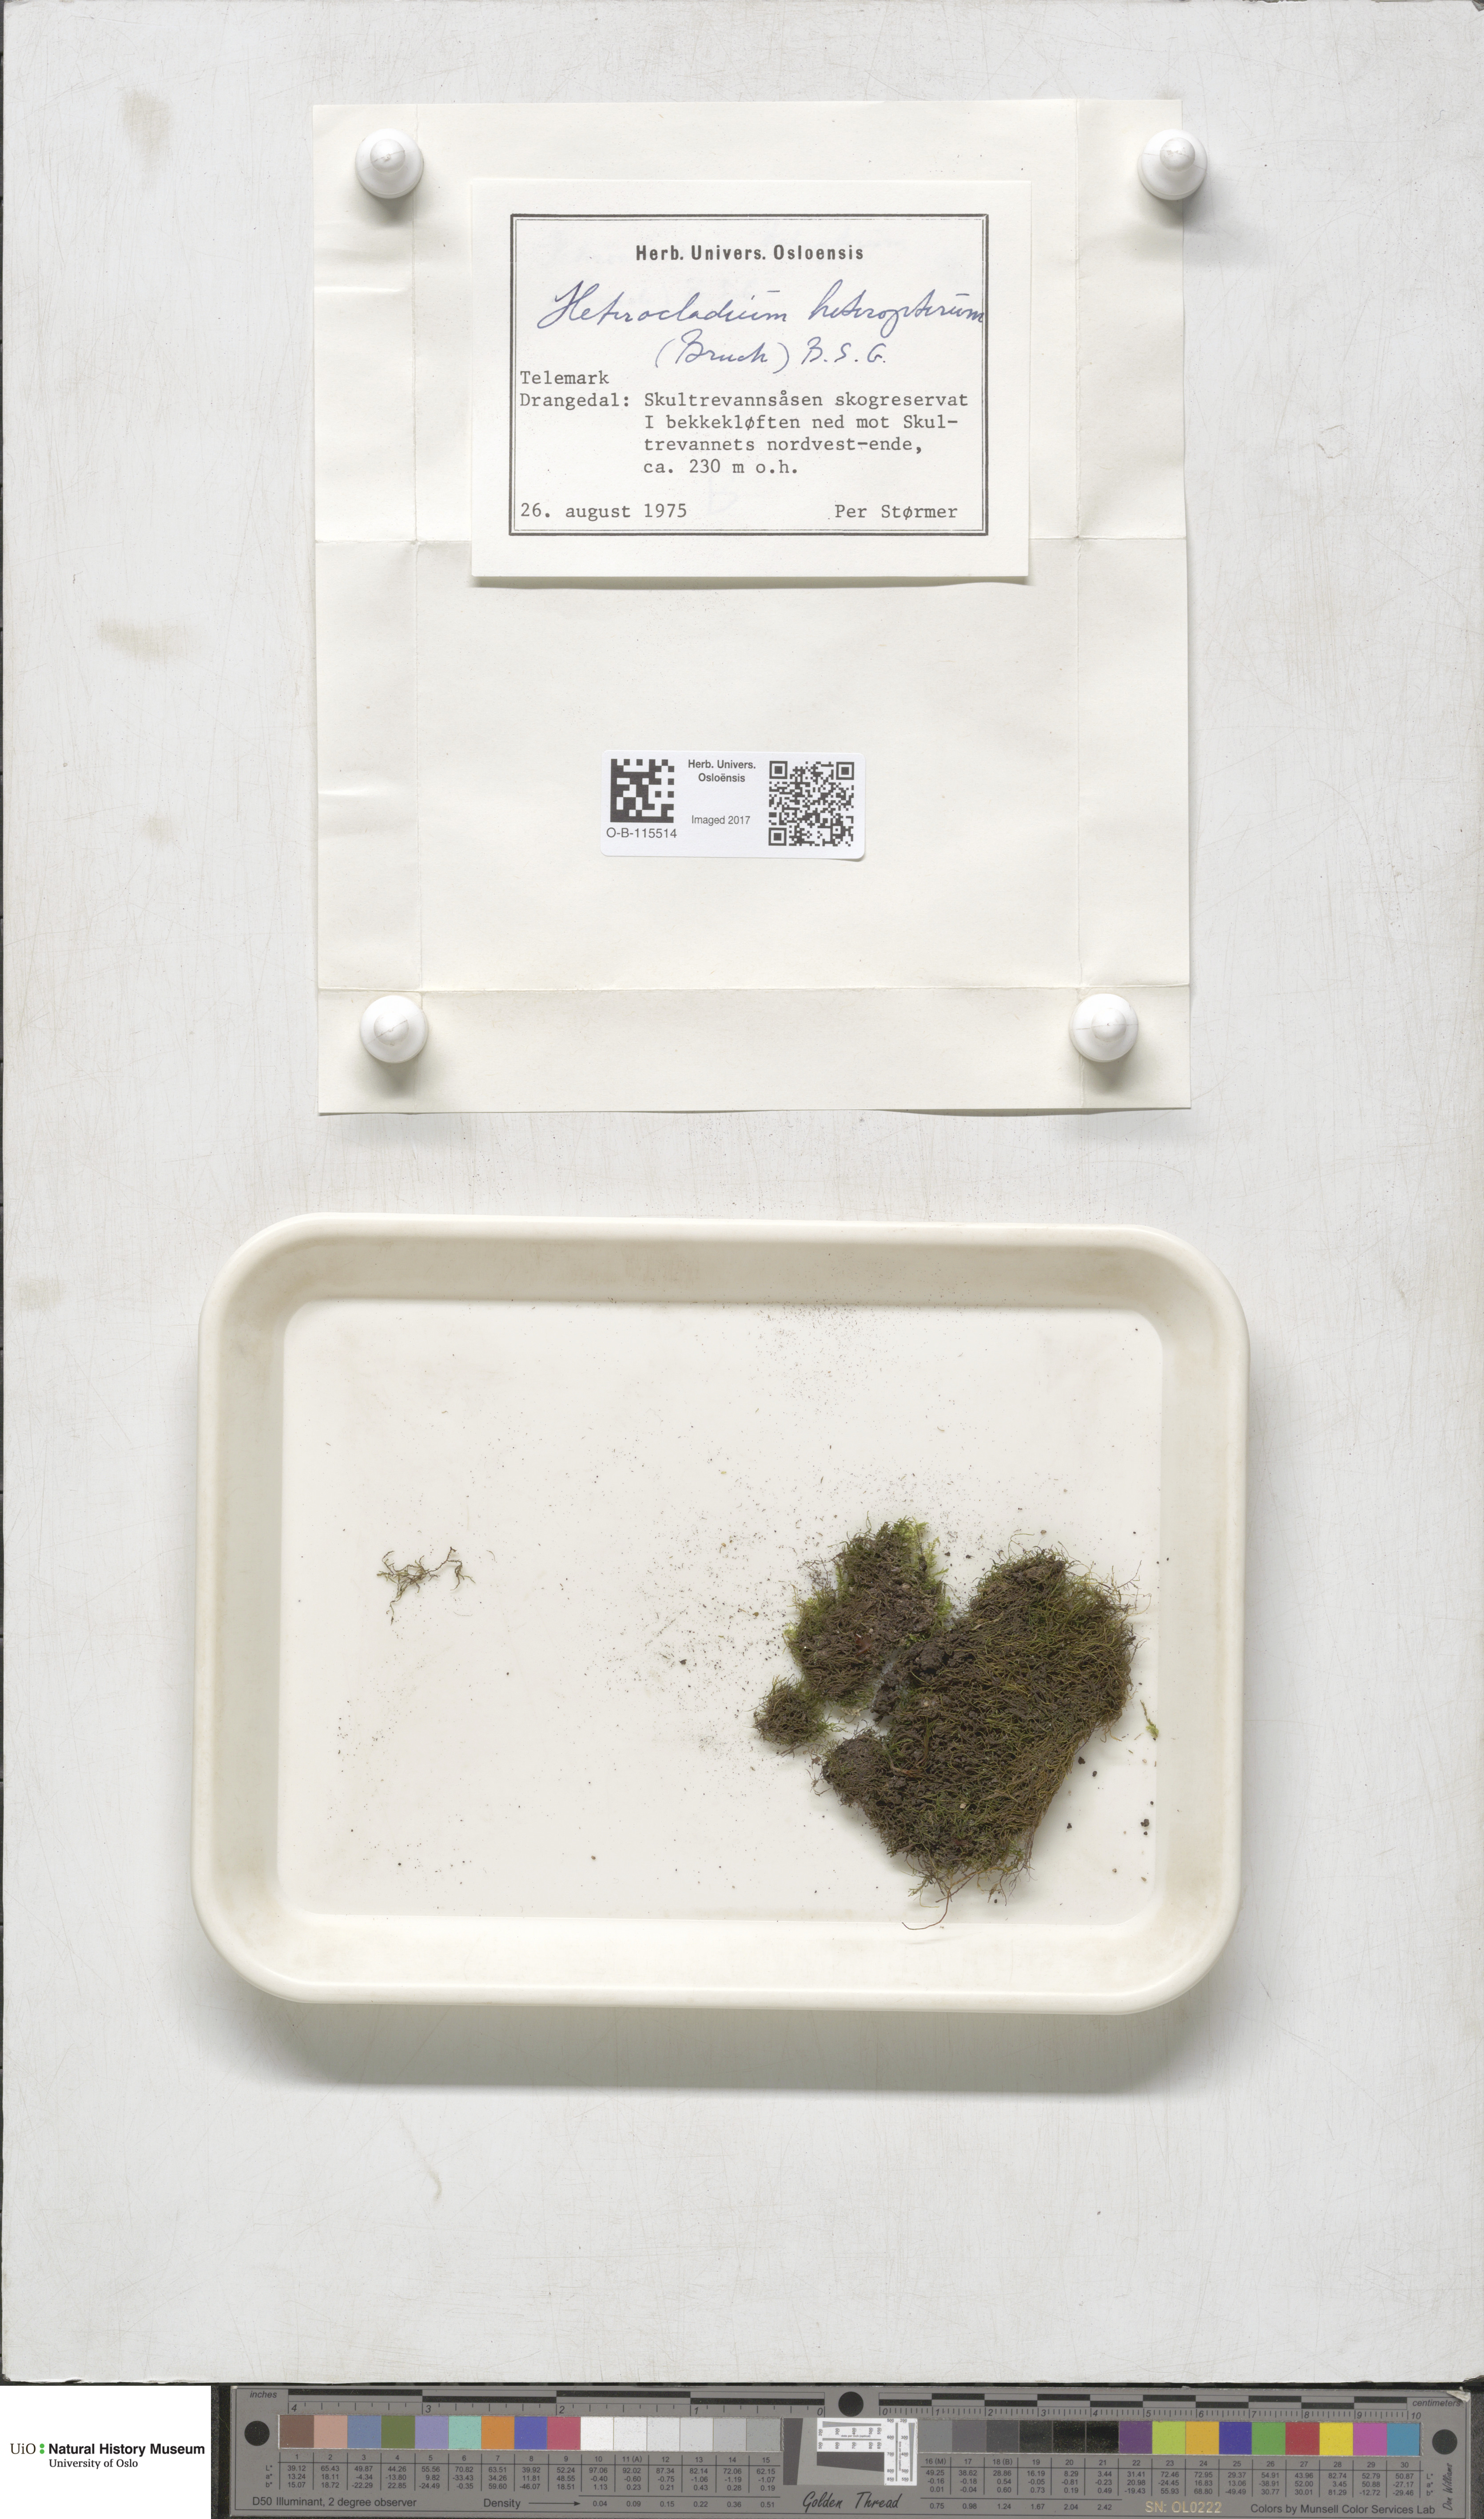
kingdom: Plantae
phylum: Bryophyta
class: Bryopsida
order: Hypnales
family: Lembophyllaceae
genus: Heterocladium
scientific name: Heterocladium heteropterum
